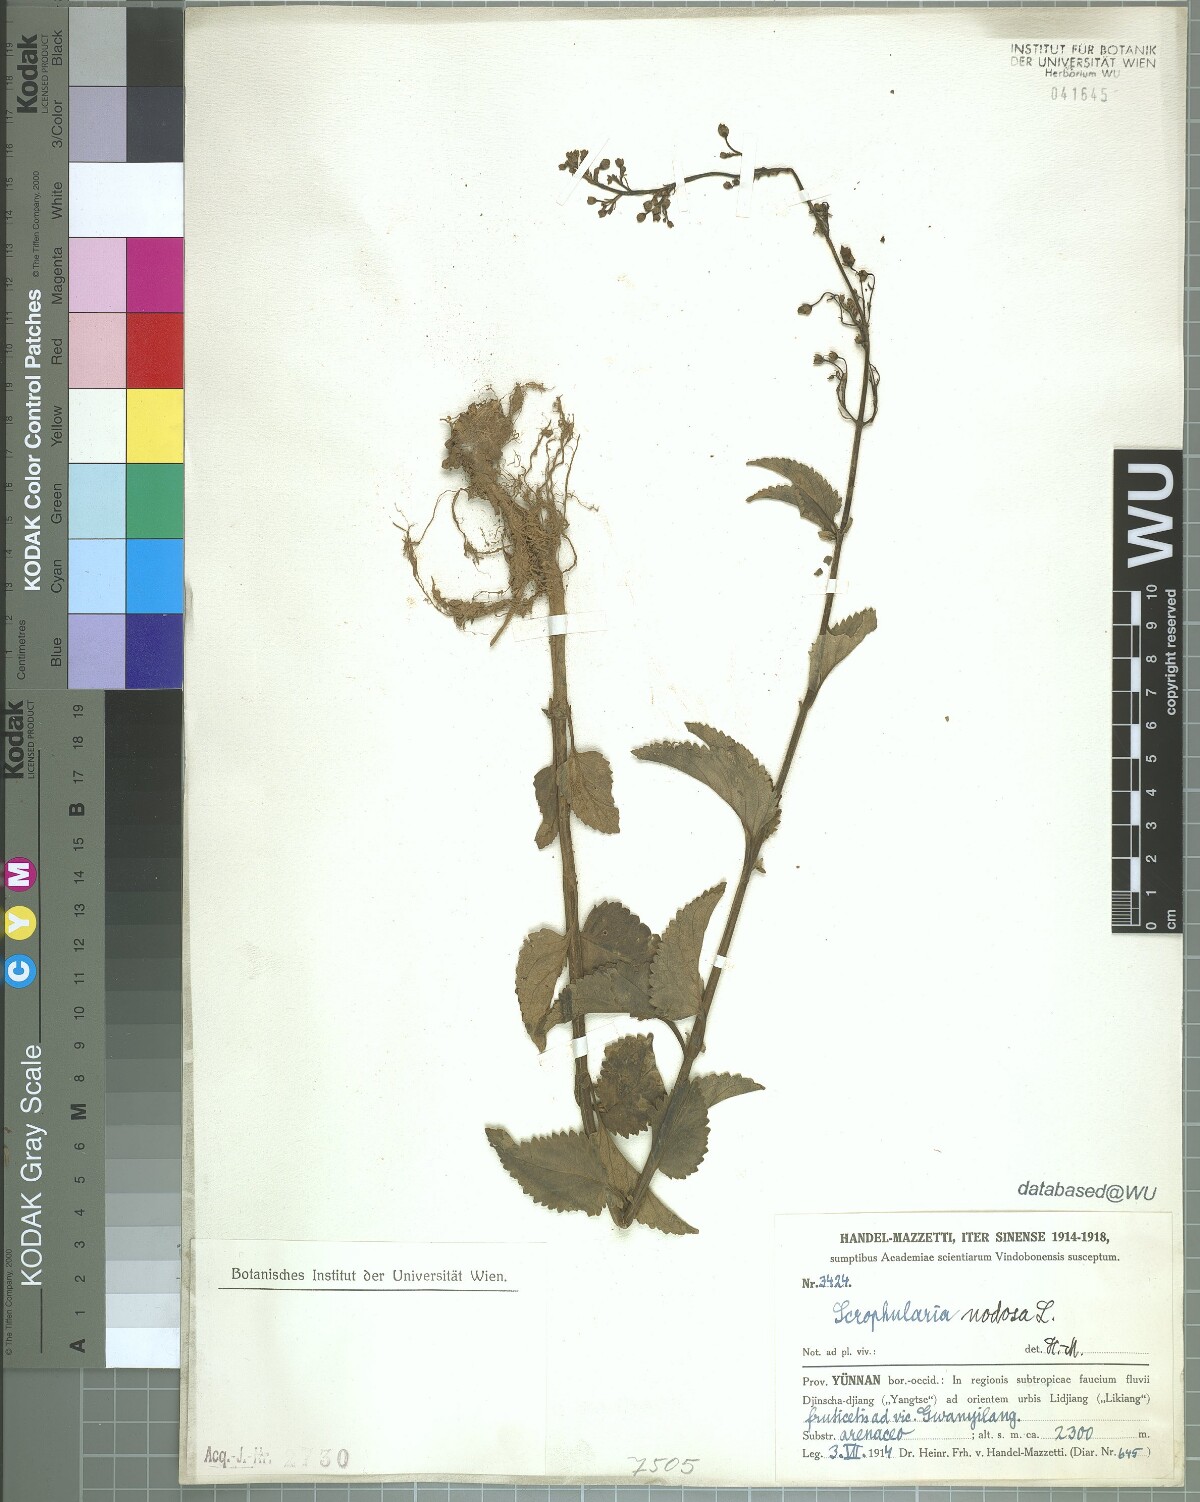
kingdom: Plantae
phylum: Tracheophyta
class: Magnoliopsida
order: Lamiales
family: Scrophulariaceae
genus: Scrophularia
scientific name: Scrophularia nodosa
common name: Common figwort
